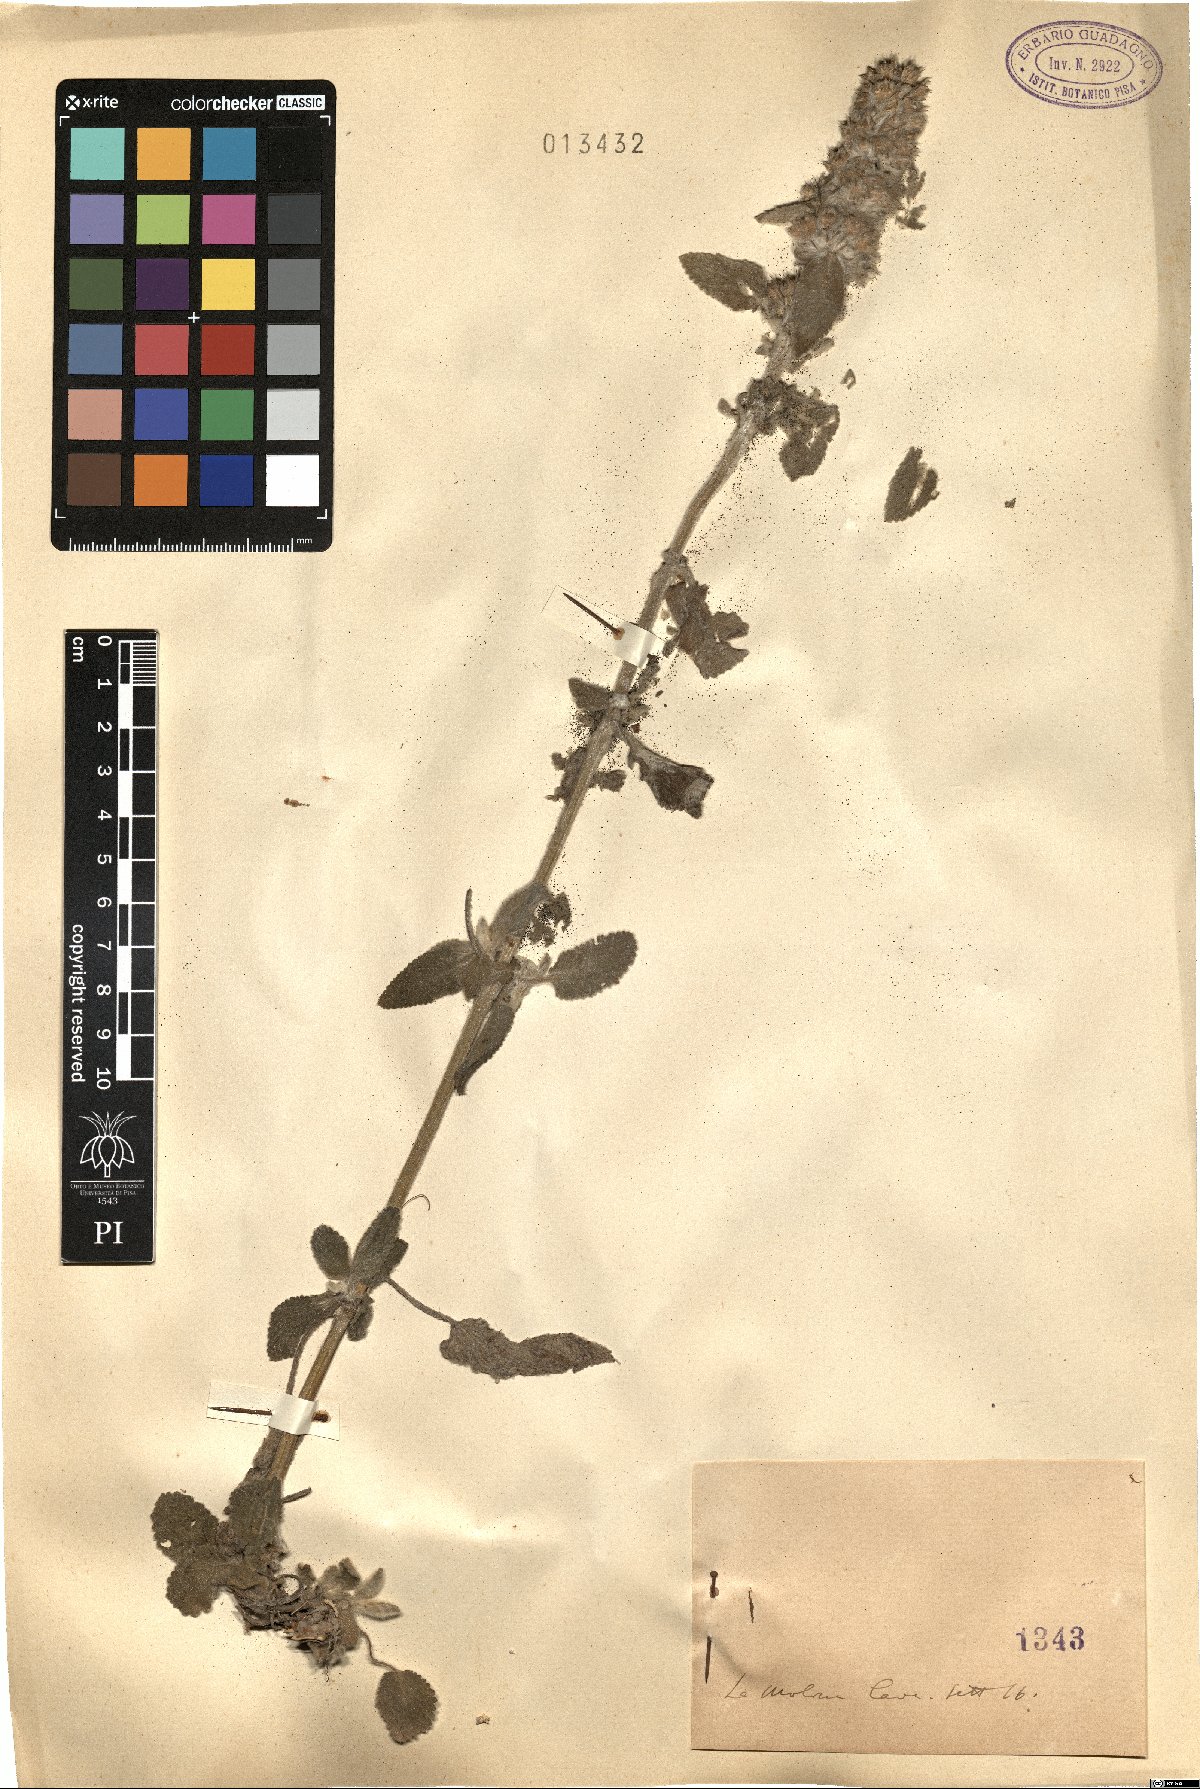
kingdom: Plantae
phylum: Tracheophyta
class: Magnoliopsida
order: Lamiales
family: Lamiaceae
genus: Stachys
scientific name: Stachys
